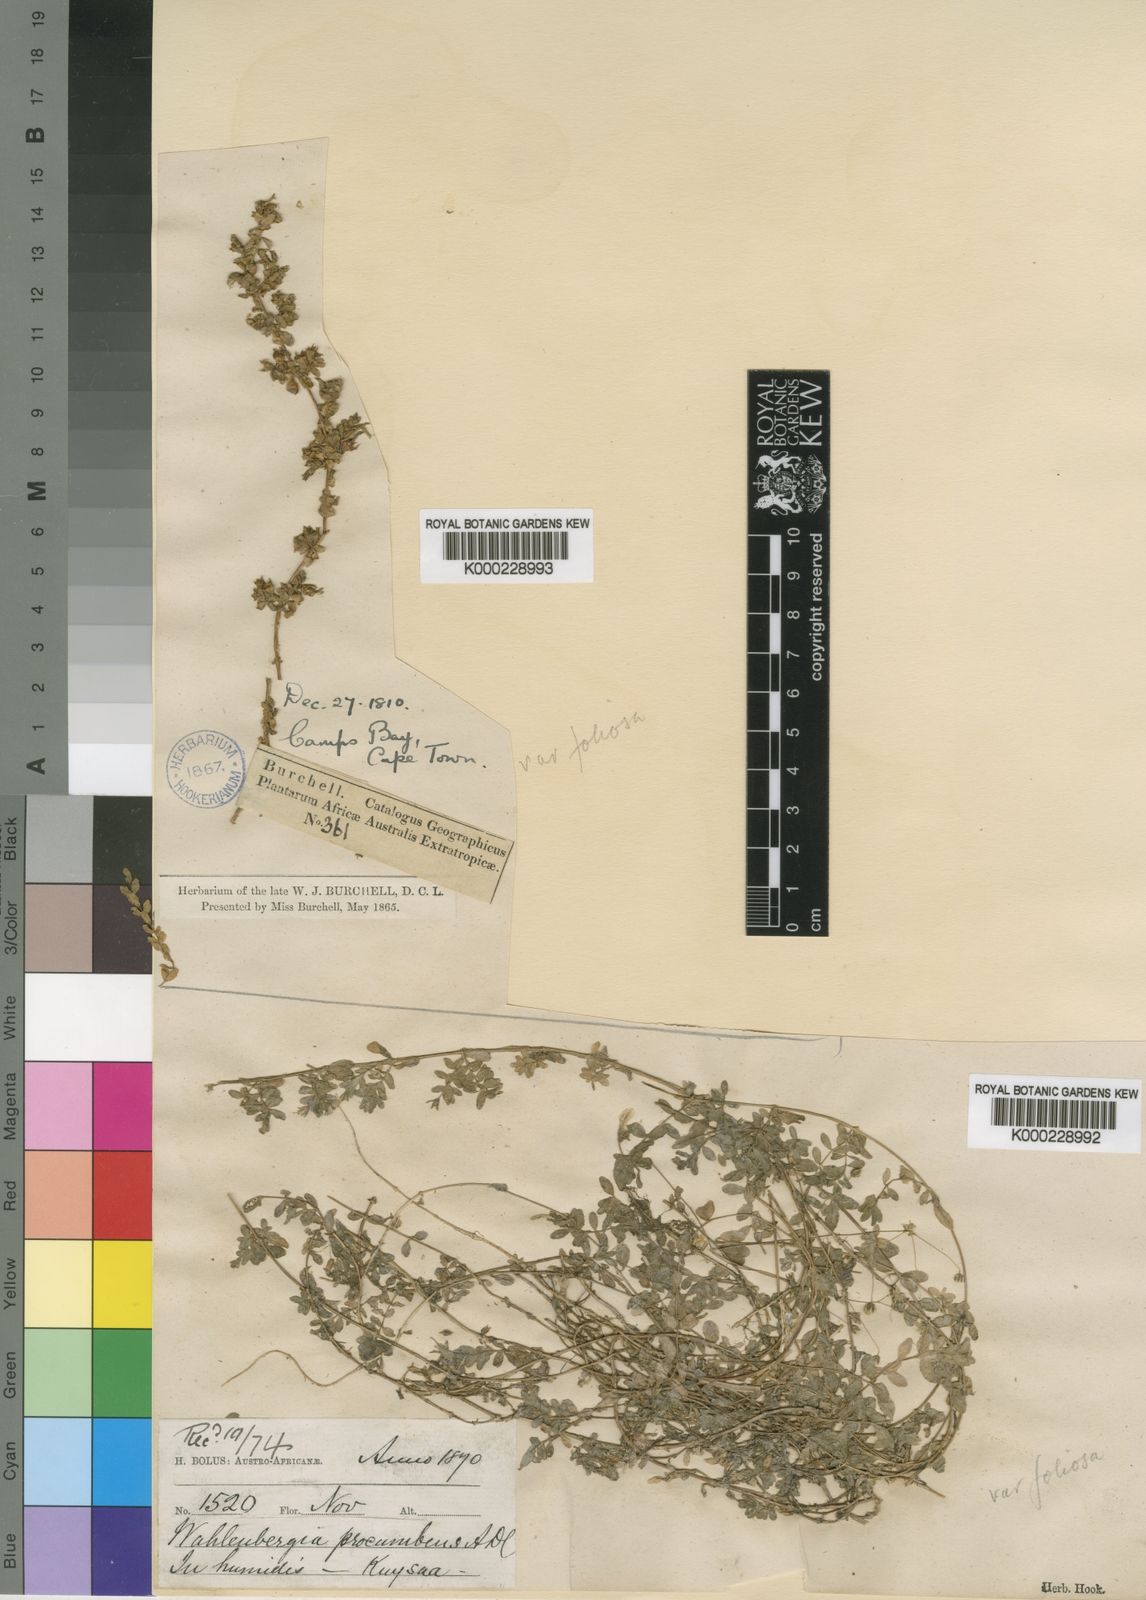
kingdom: Plantae
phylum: Tracheophyta
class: Magnoliopsida
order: Asterales
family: Campanulaceae
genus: Wahlenbergia
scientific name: Wahlenbergia procumbens
